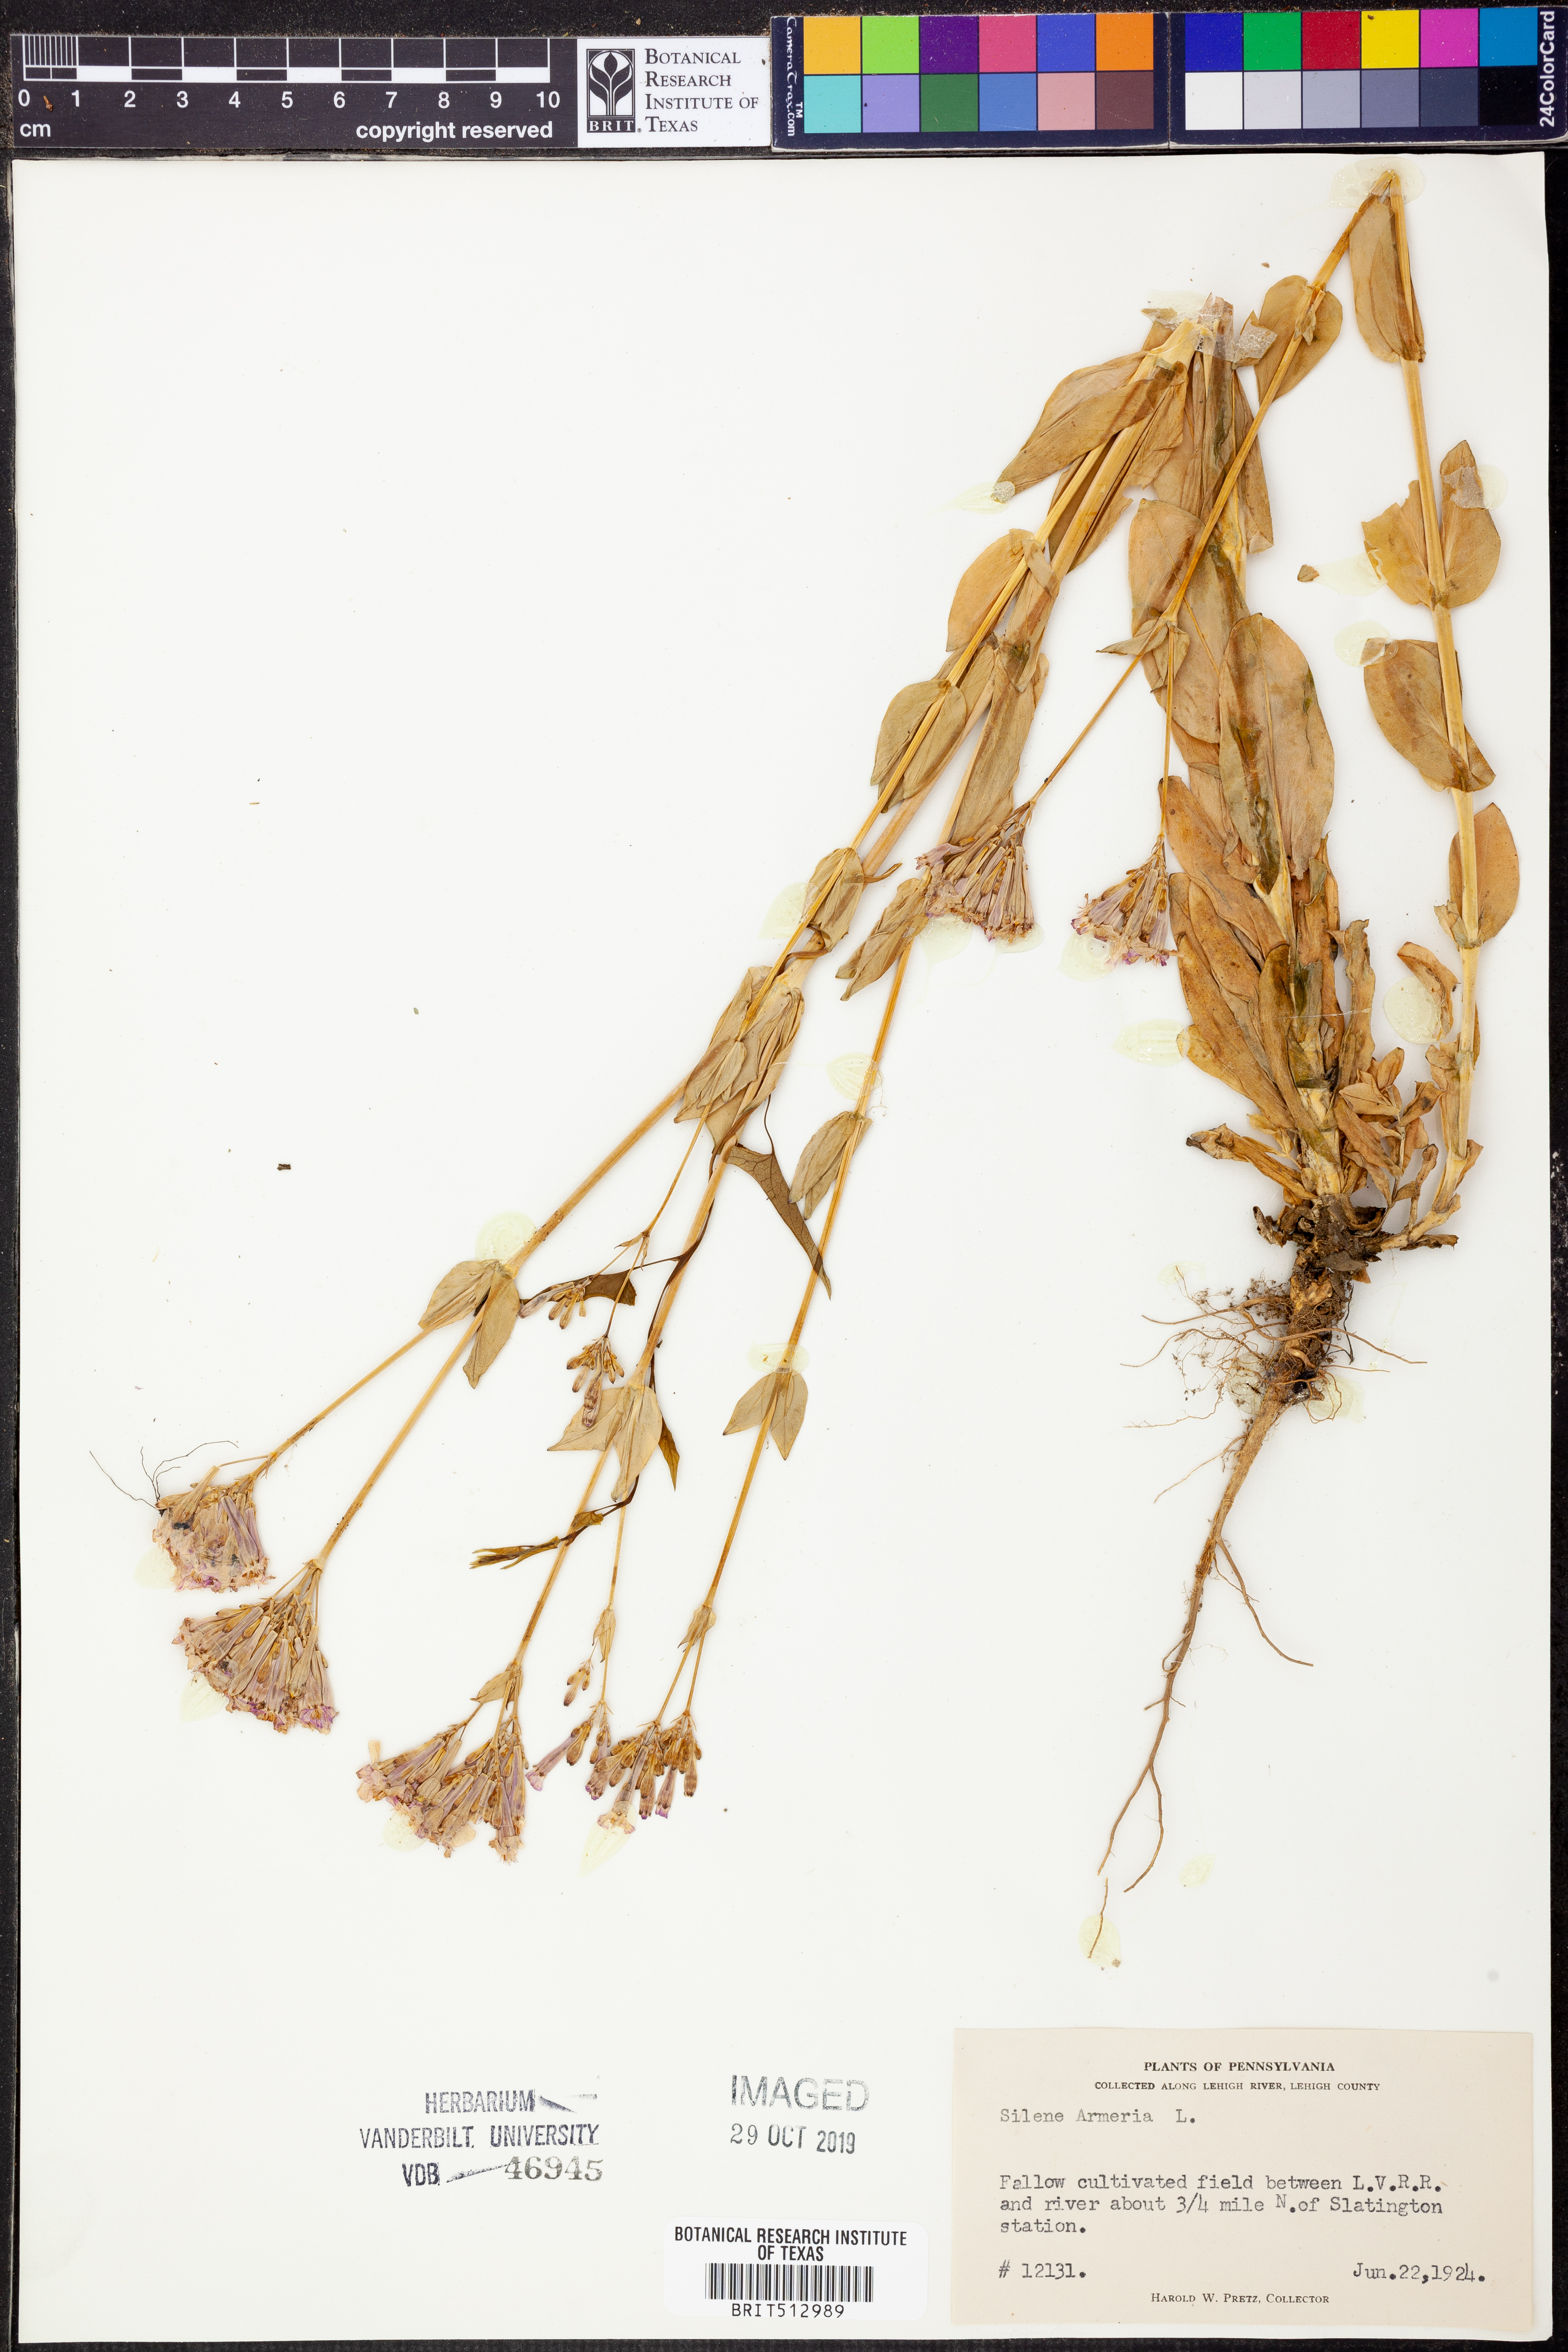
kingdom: Plantae
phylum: Tracheophyta
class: Magnoliopsida
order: Caryophyllales
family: Caryophyllaceae
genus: Atocion
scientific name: Atocion armeria
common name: Sweet william catchfly
